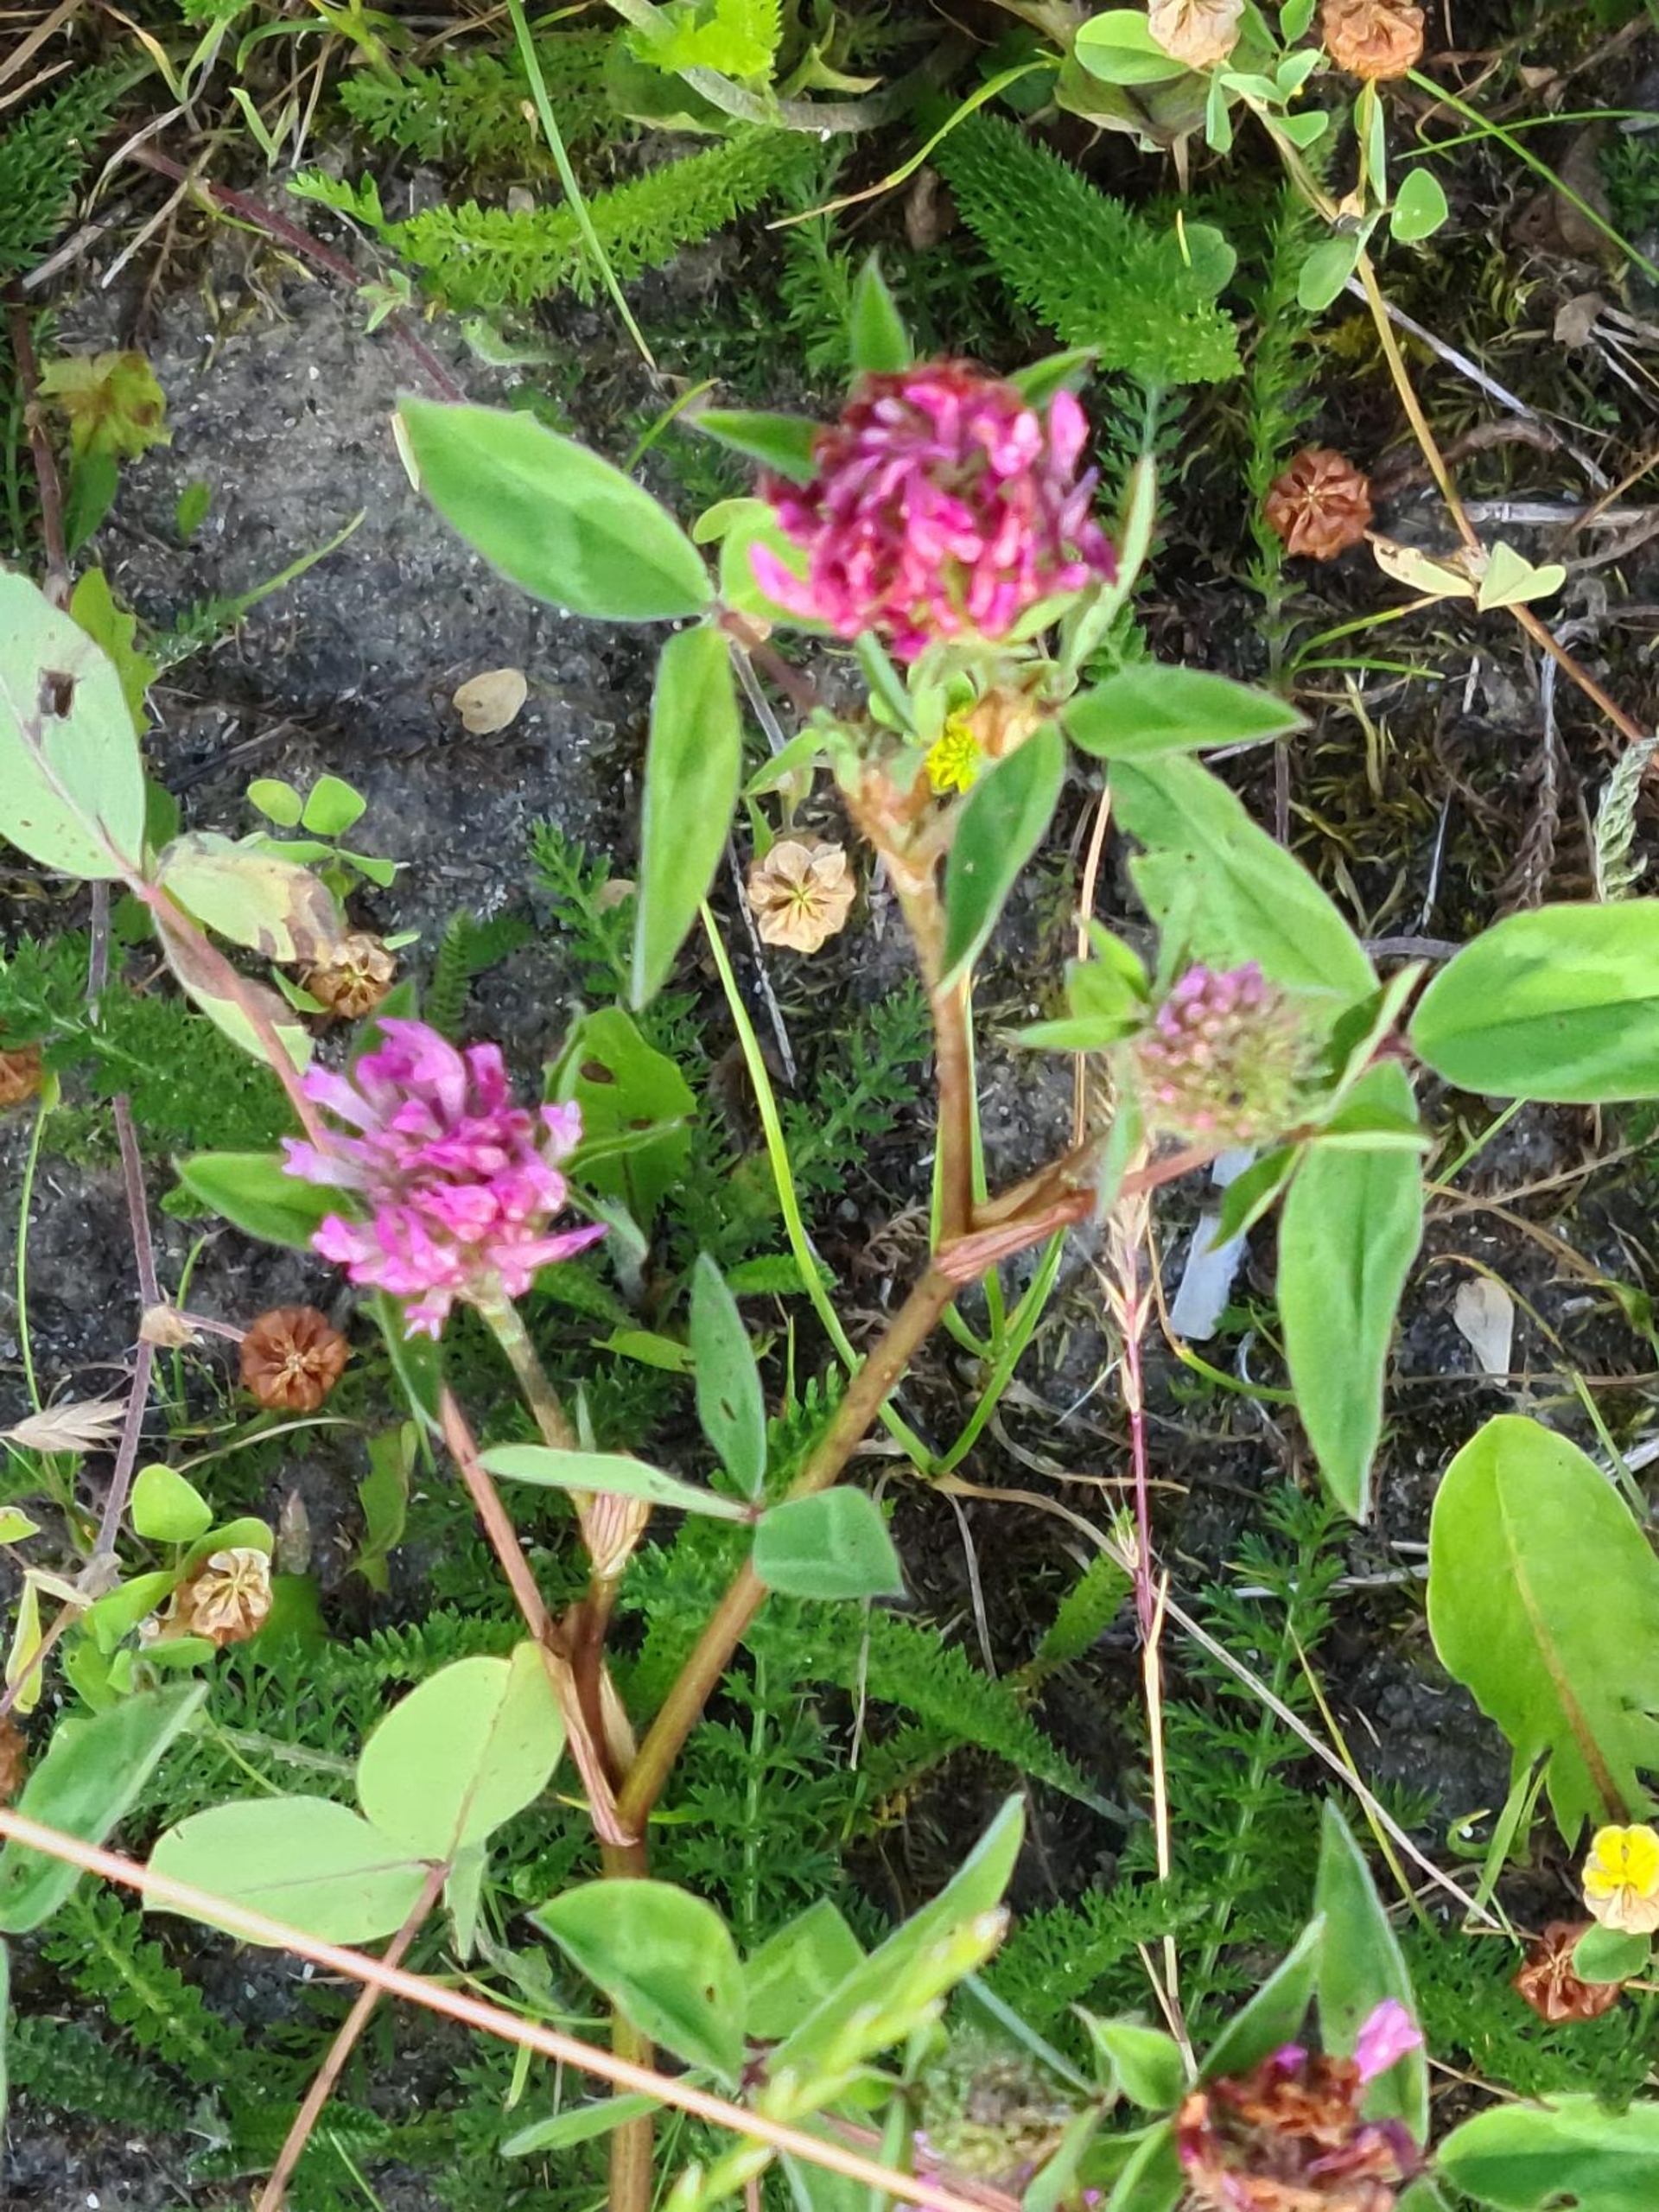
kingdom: Plantae
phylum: Tracheophyta
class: Magnoliopsida
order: Fabales
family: Fabaceae
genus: Trifolium
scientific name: Trifolium pratense
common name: Rød-kløver
